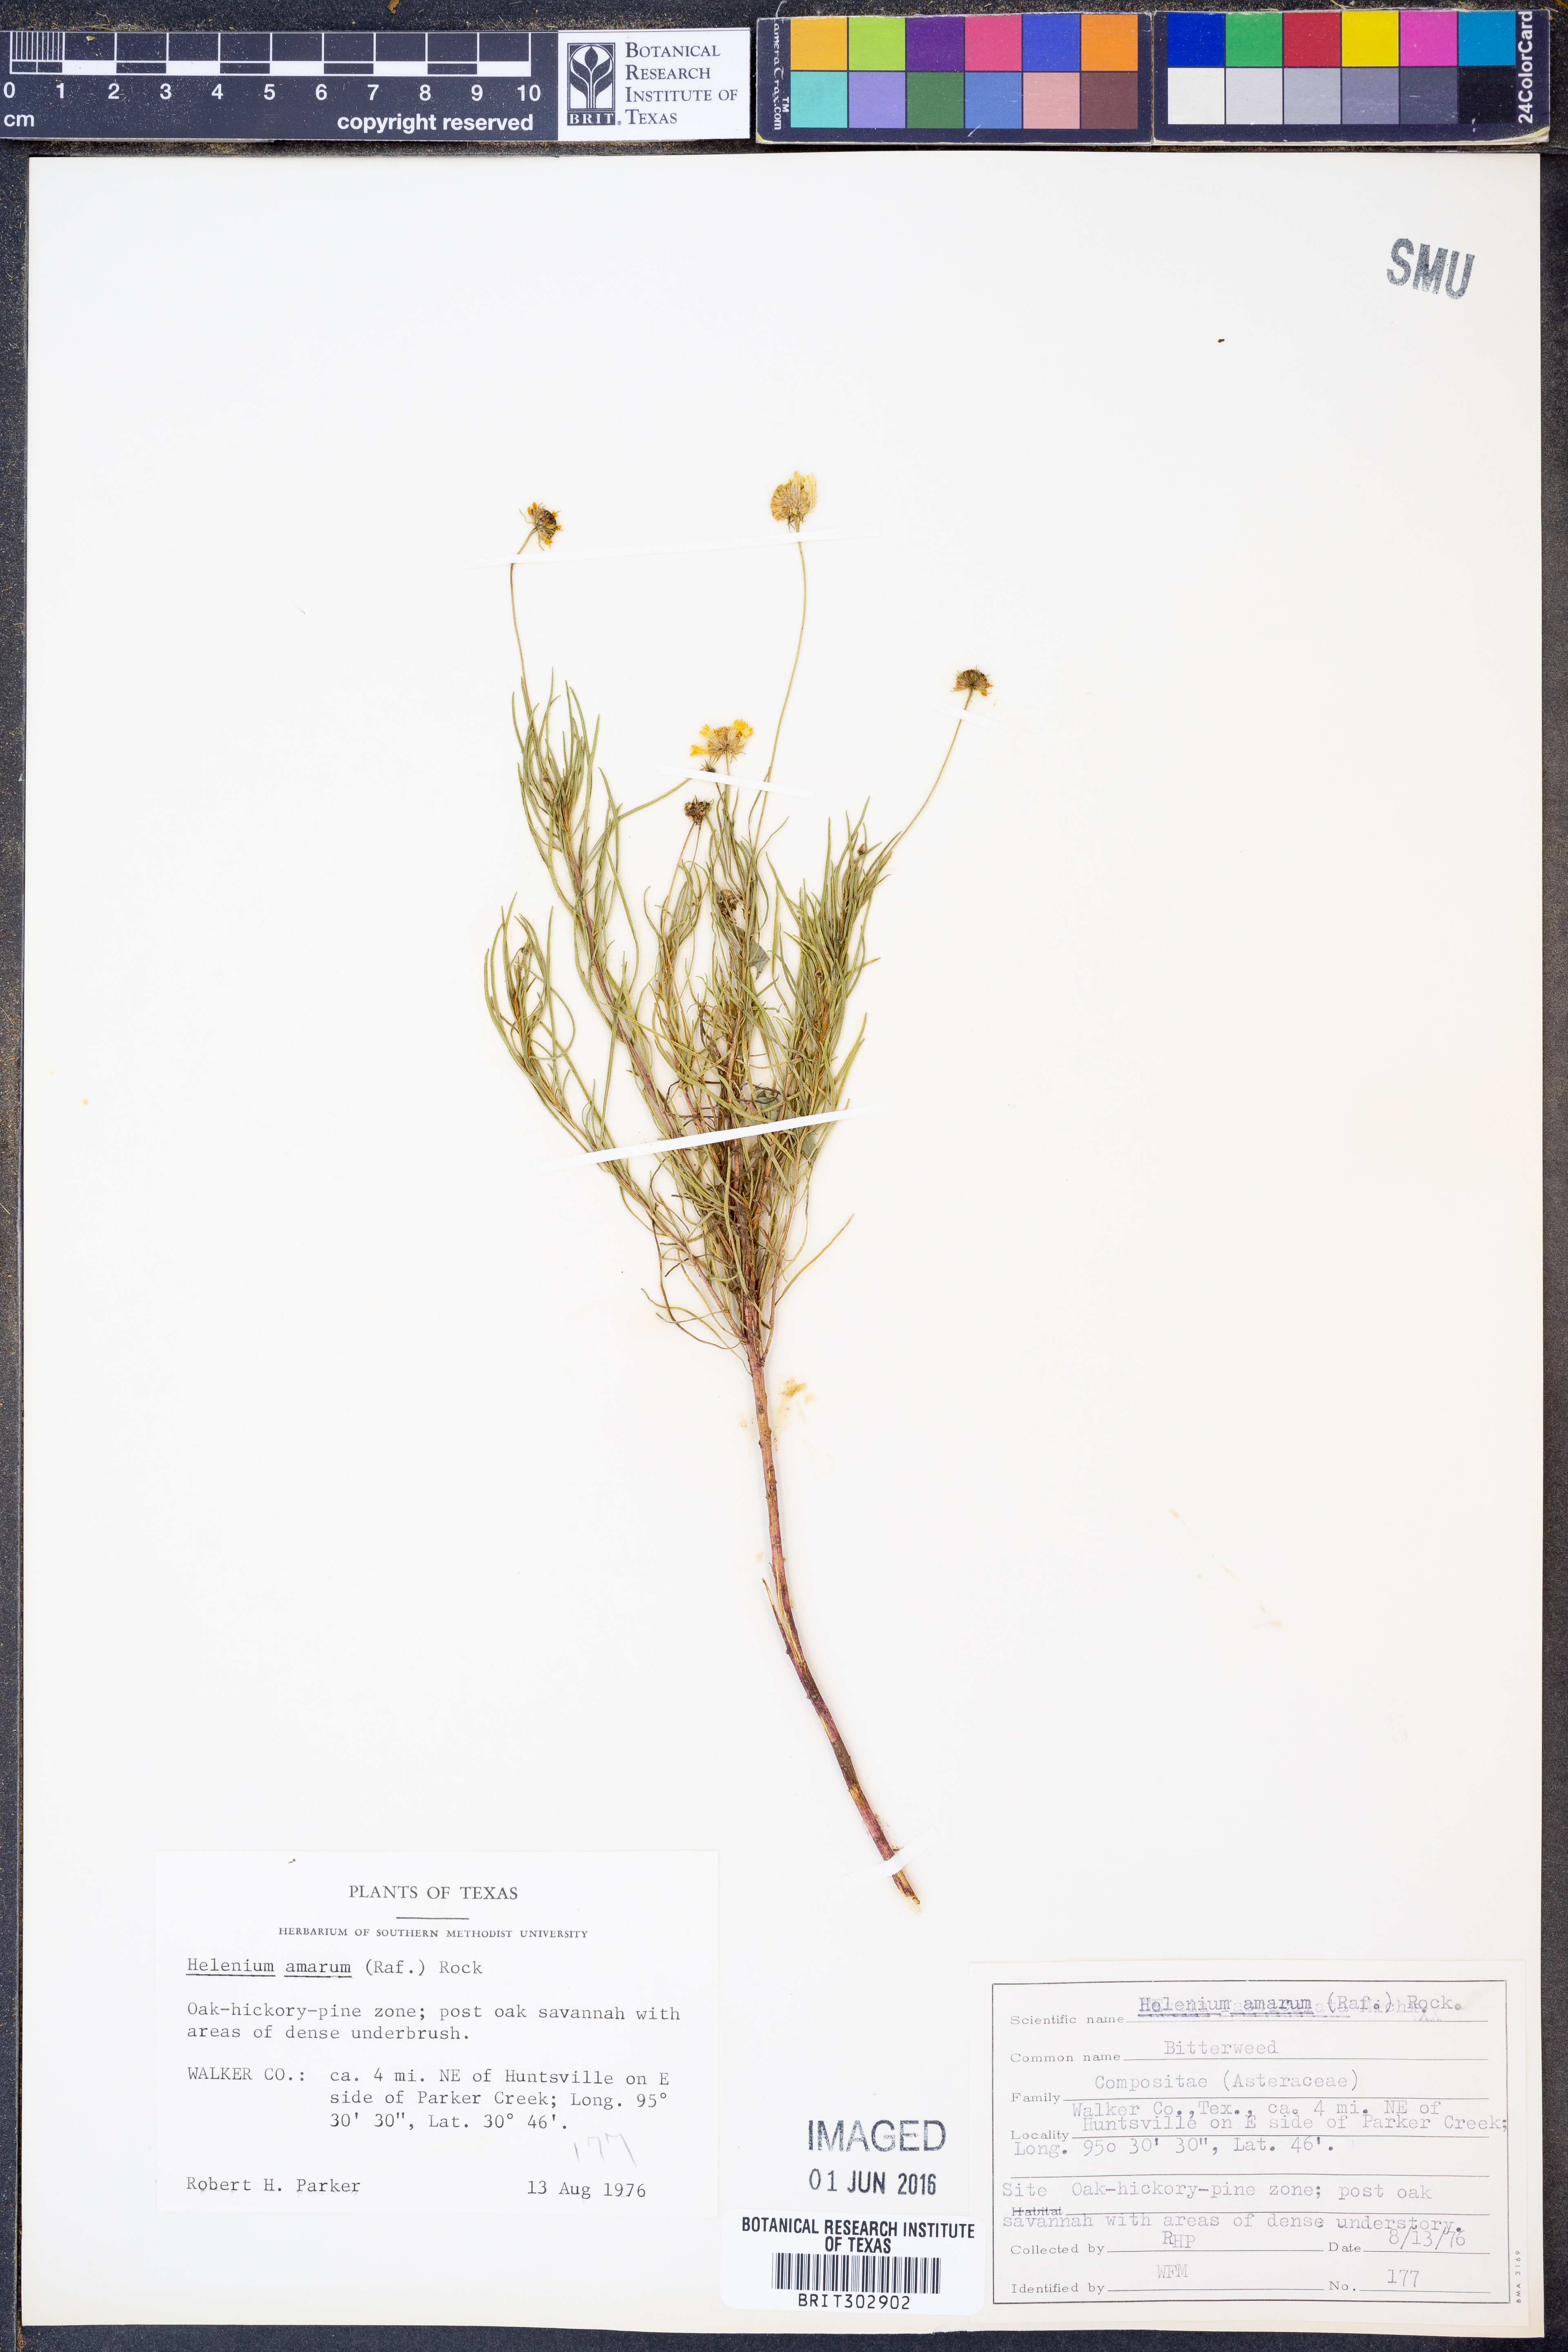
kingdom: Plantae
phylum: Tracheophyta
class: Magnoliopsida
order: Asterales
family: Asteraceae
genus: Helenium
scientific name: Helenium amarum
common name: Bitter sneezeweed
